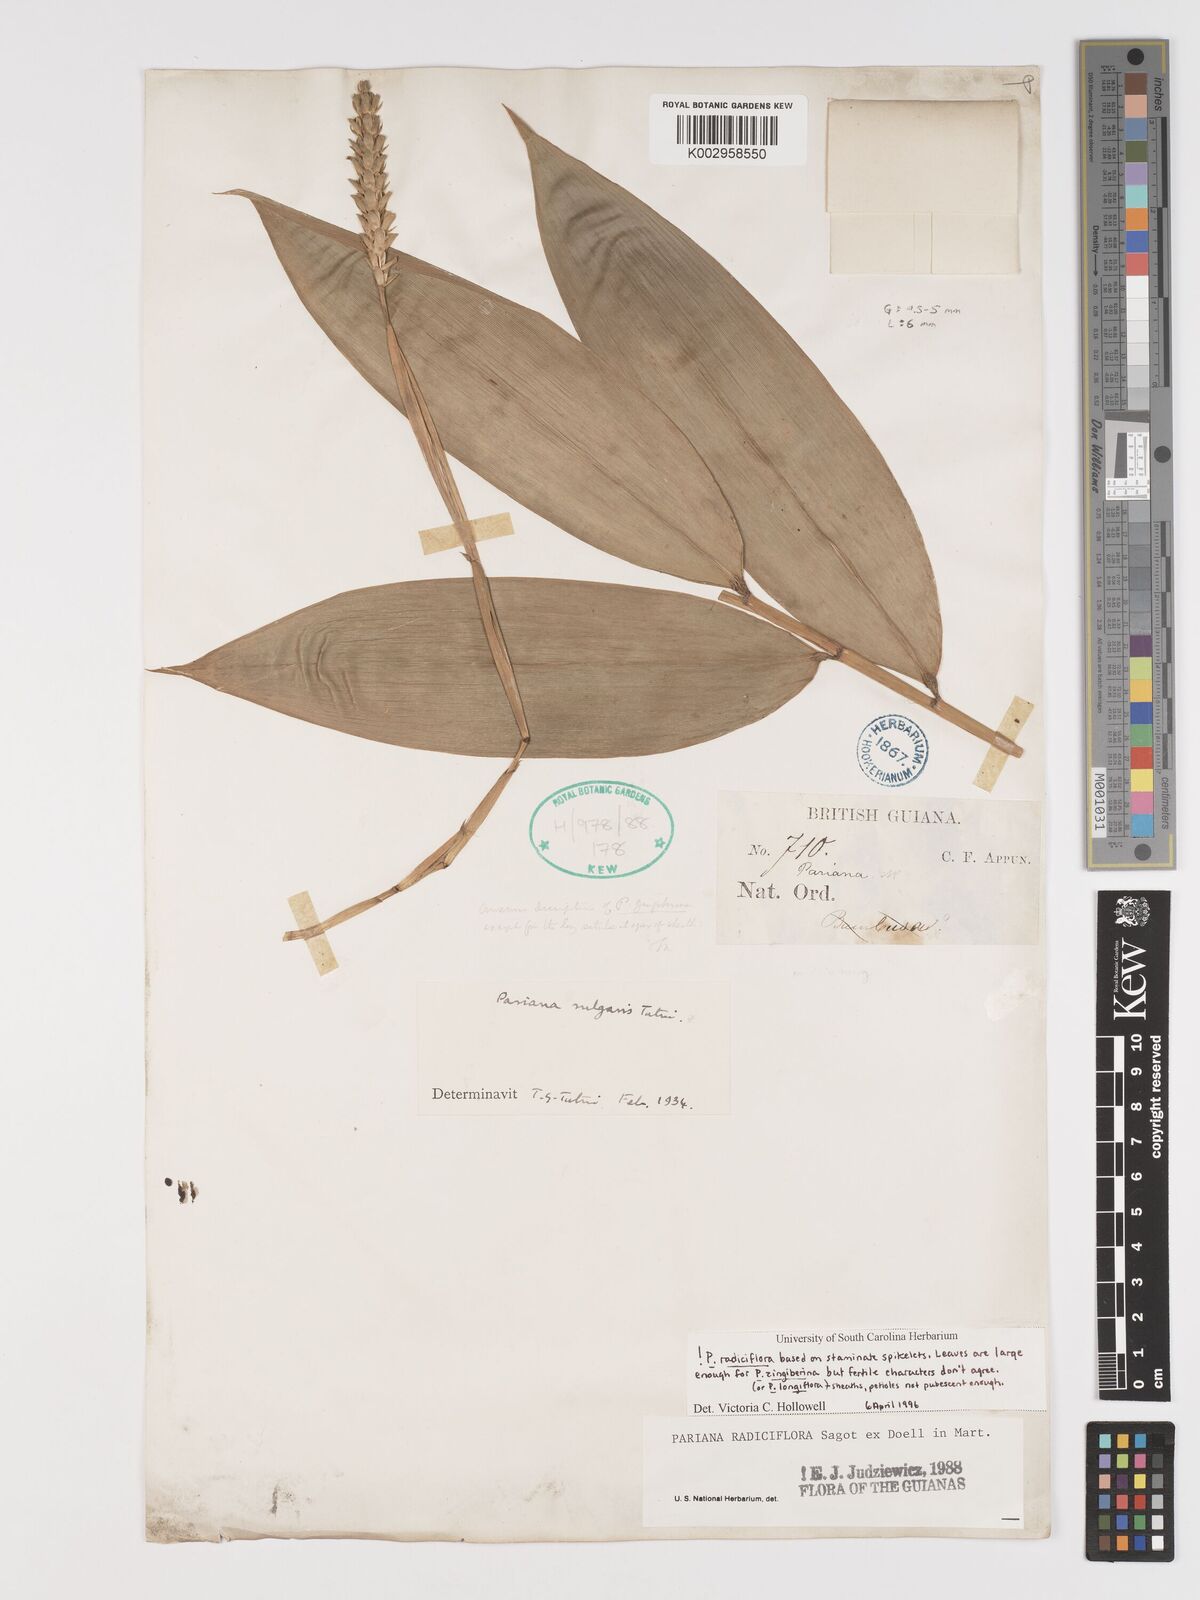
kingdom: Plantae
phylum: Tracheophyta
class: Liliopsida
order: Poales
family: Poaceae
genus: Pariana
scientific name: Pariana radiciflora
